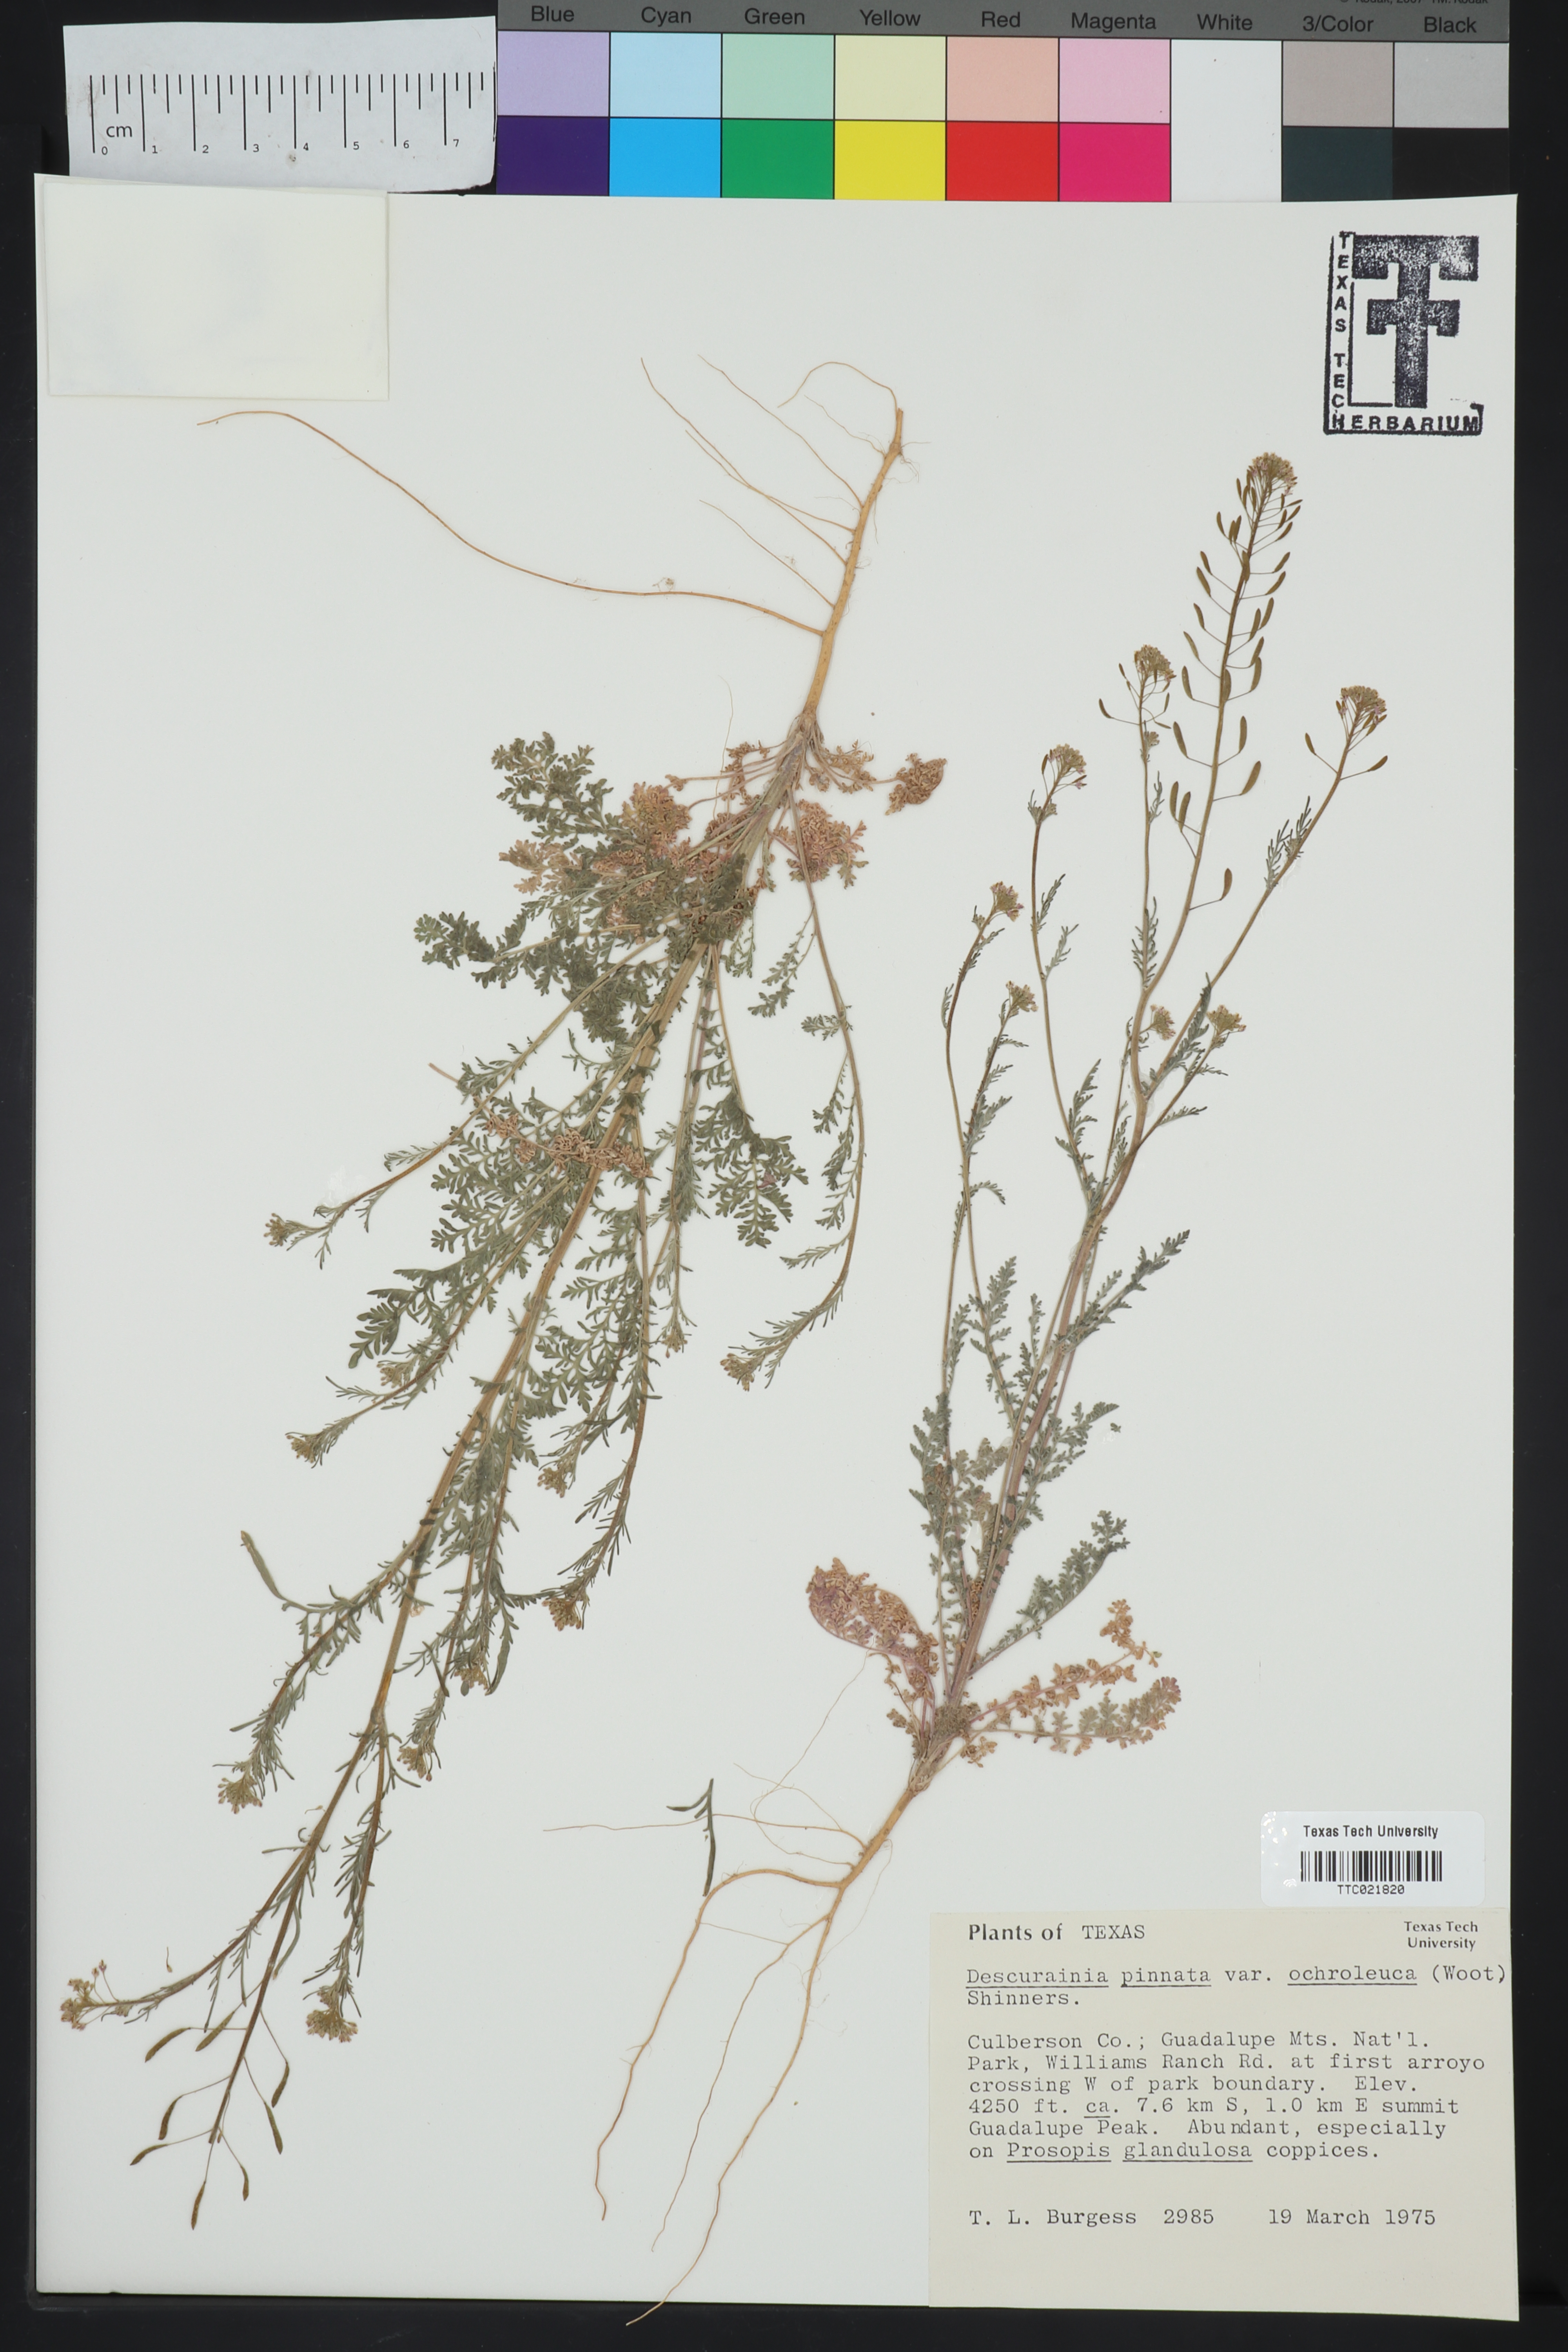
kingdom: Plantae
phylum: Tracheophyta
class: Magnoliopsida
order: Brassicales
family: Brassicaceae
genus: Descurainia
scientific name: Descurainia pinnata
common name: Western tansy mustard
